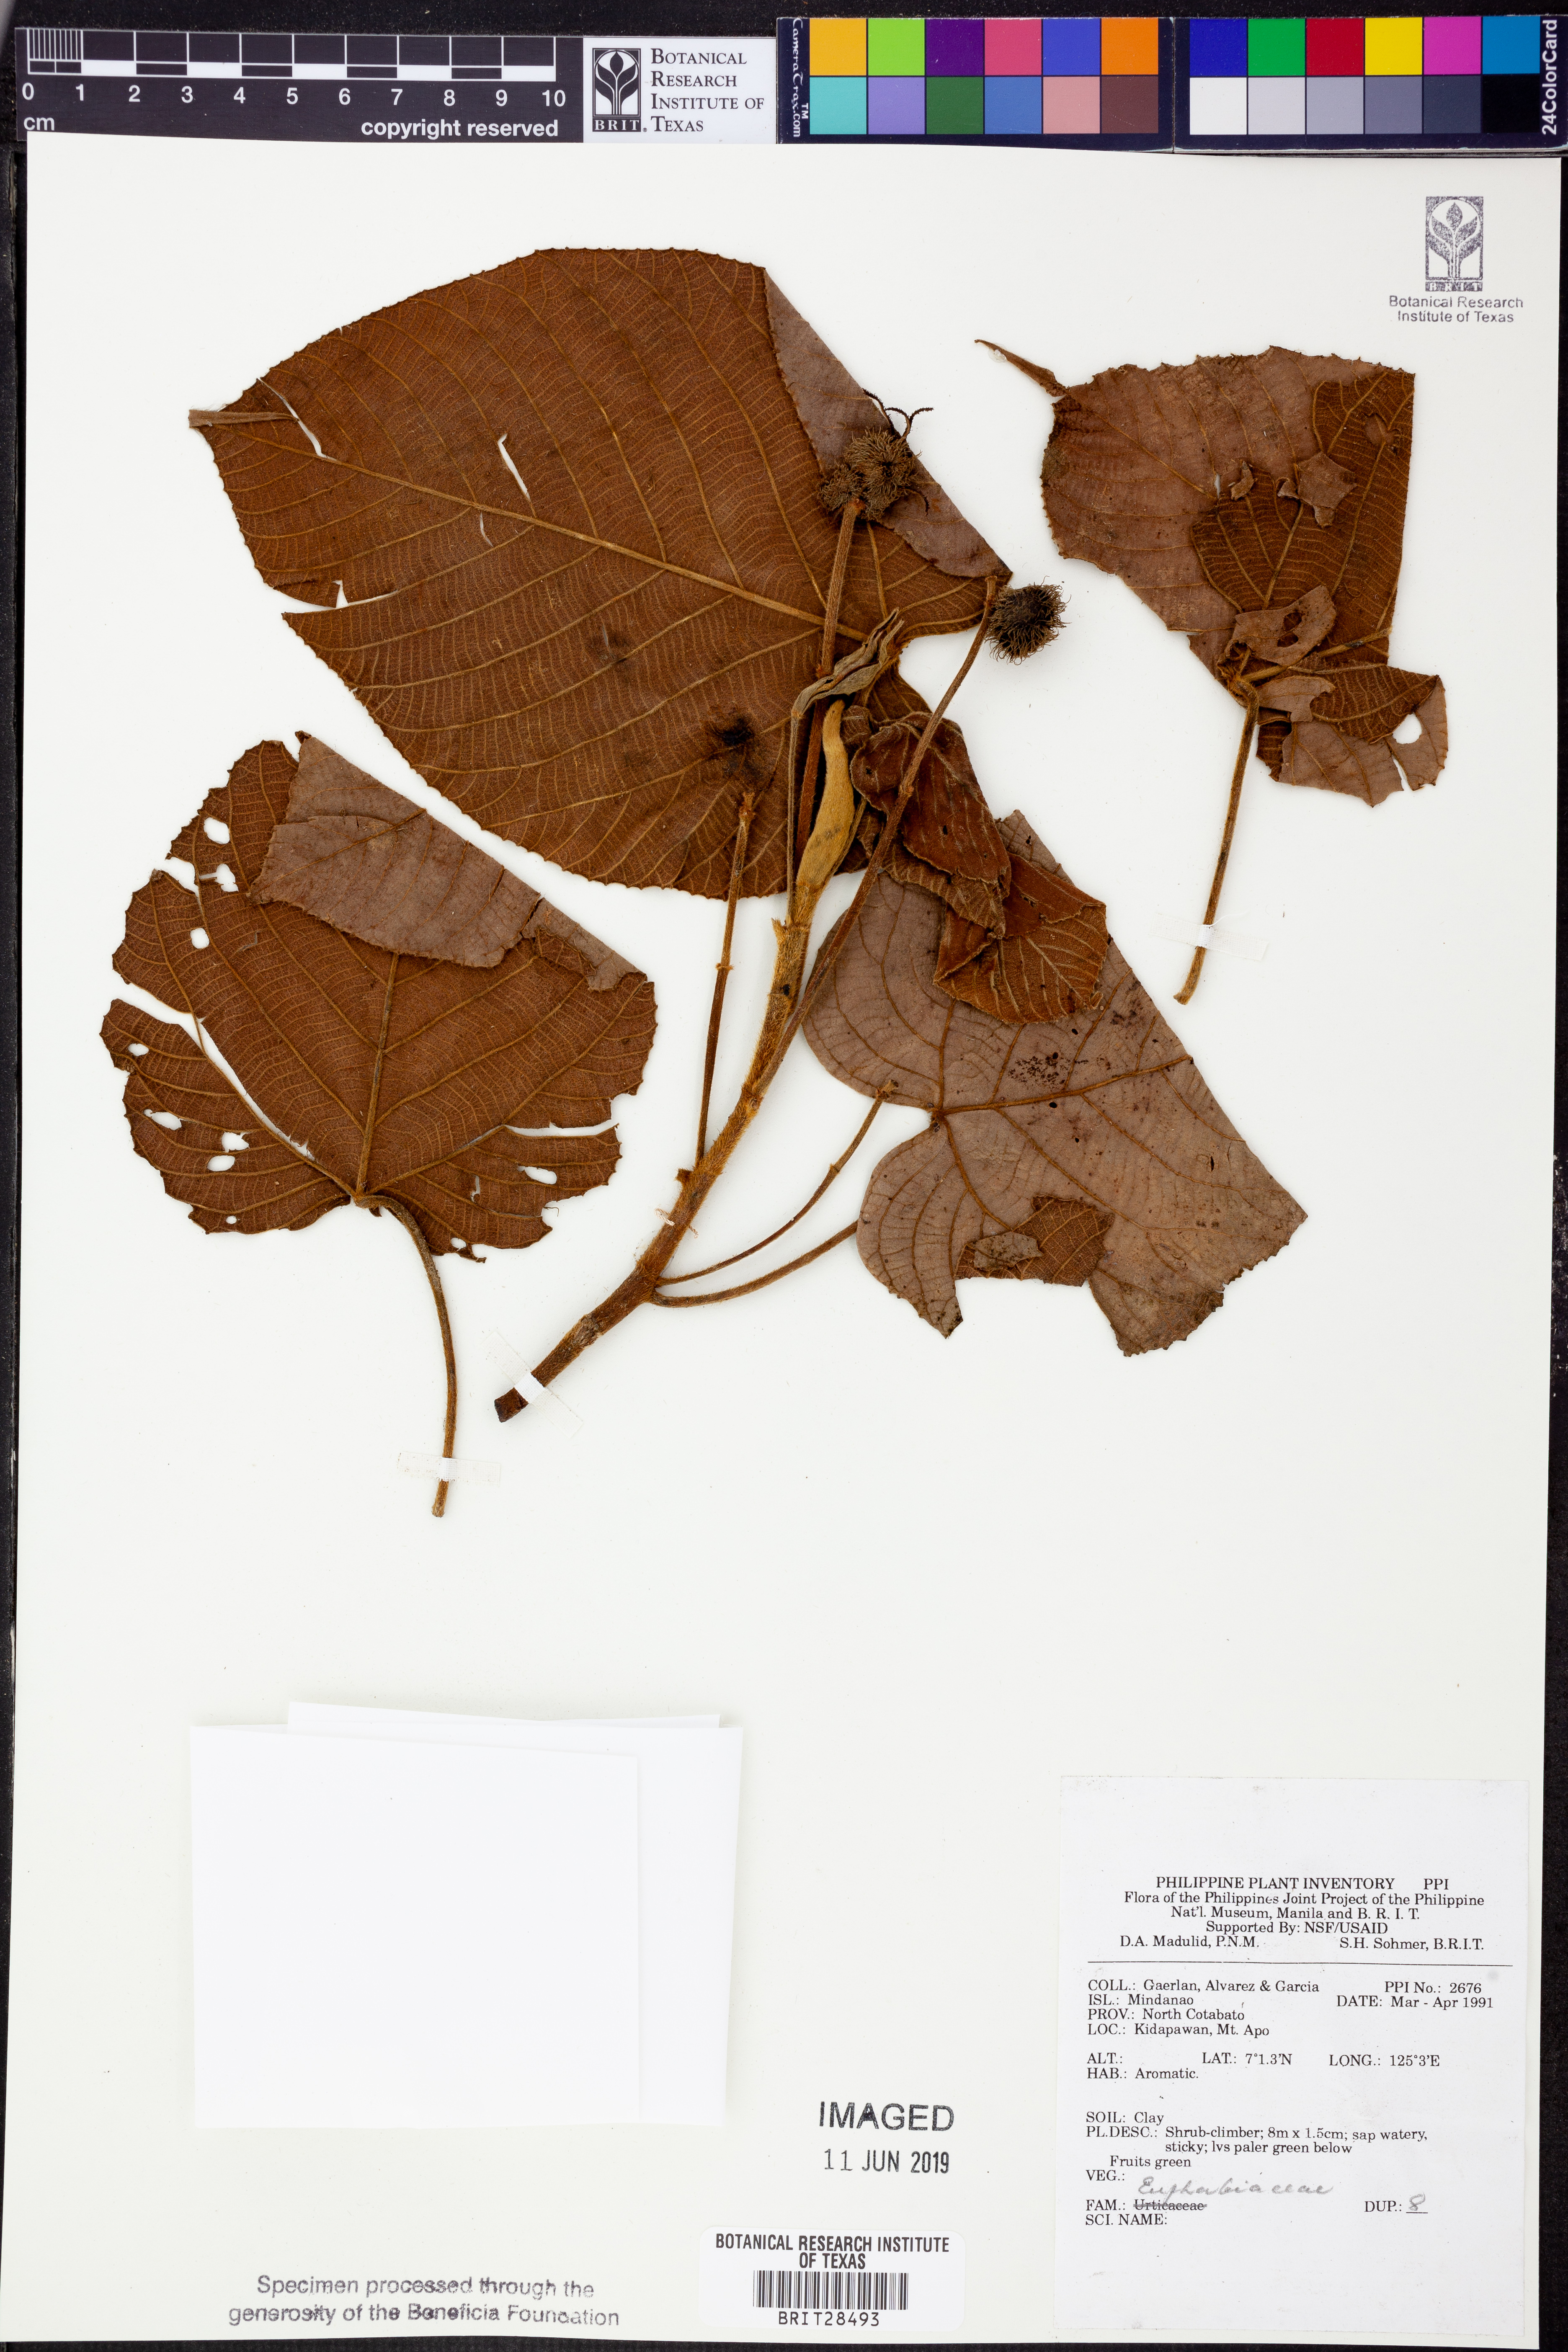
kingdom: Plantae
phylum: Tracheophyta
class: Magnoliopsida
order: Malpighiales
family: Euphorbiaceae
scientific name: Euphorbiaceae
